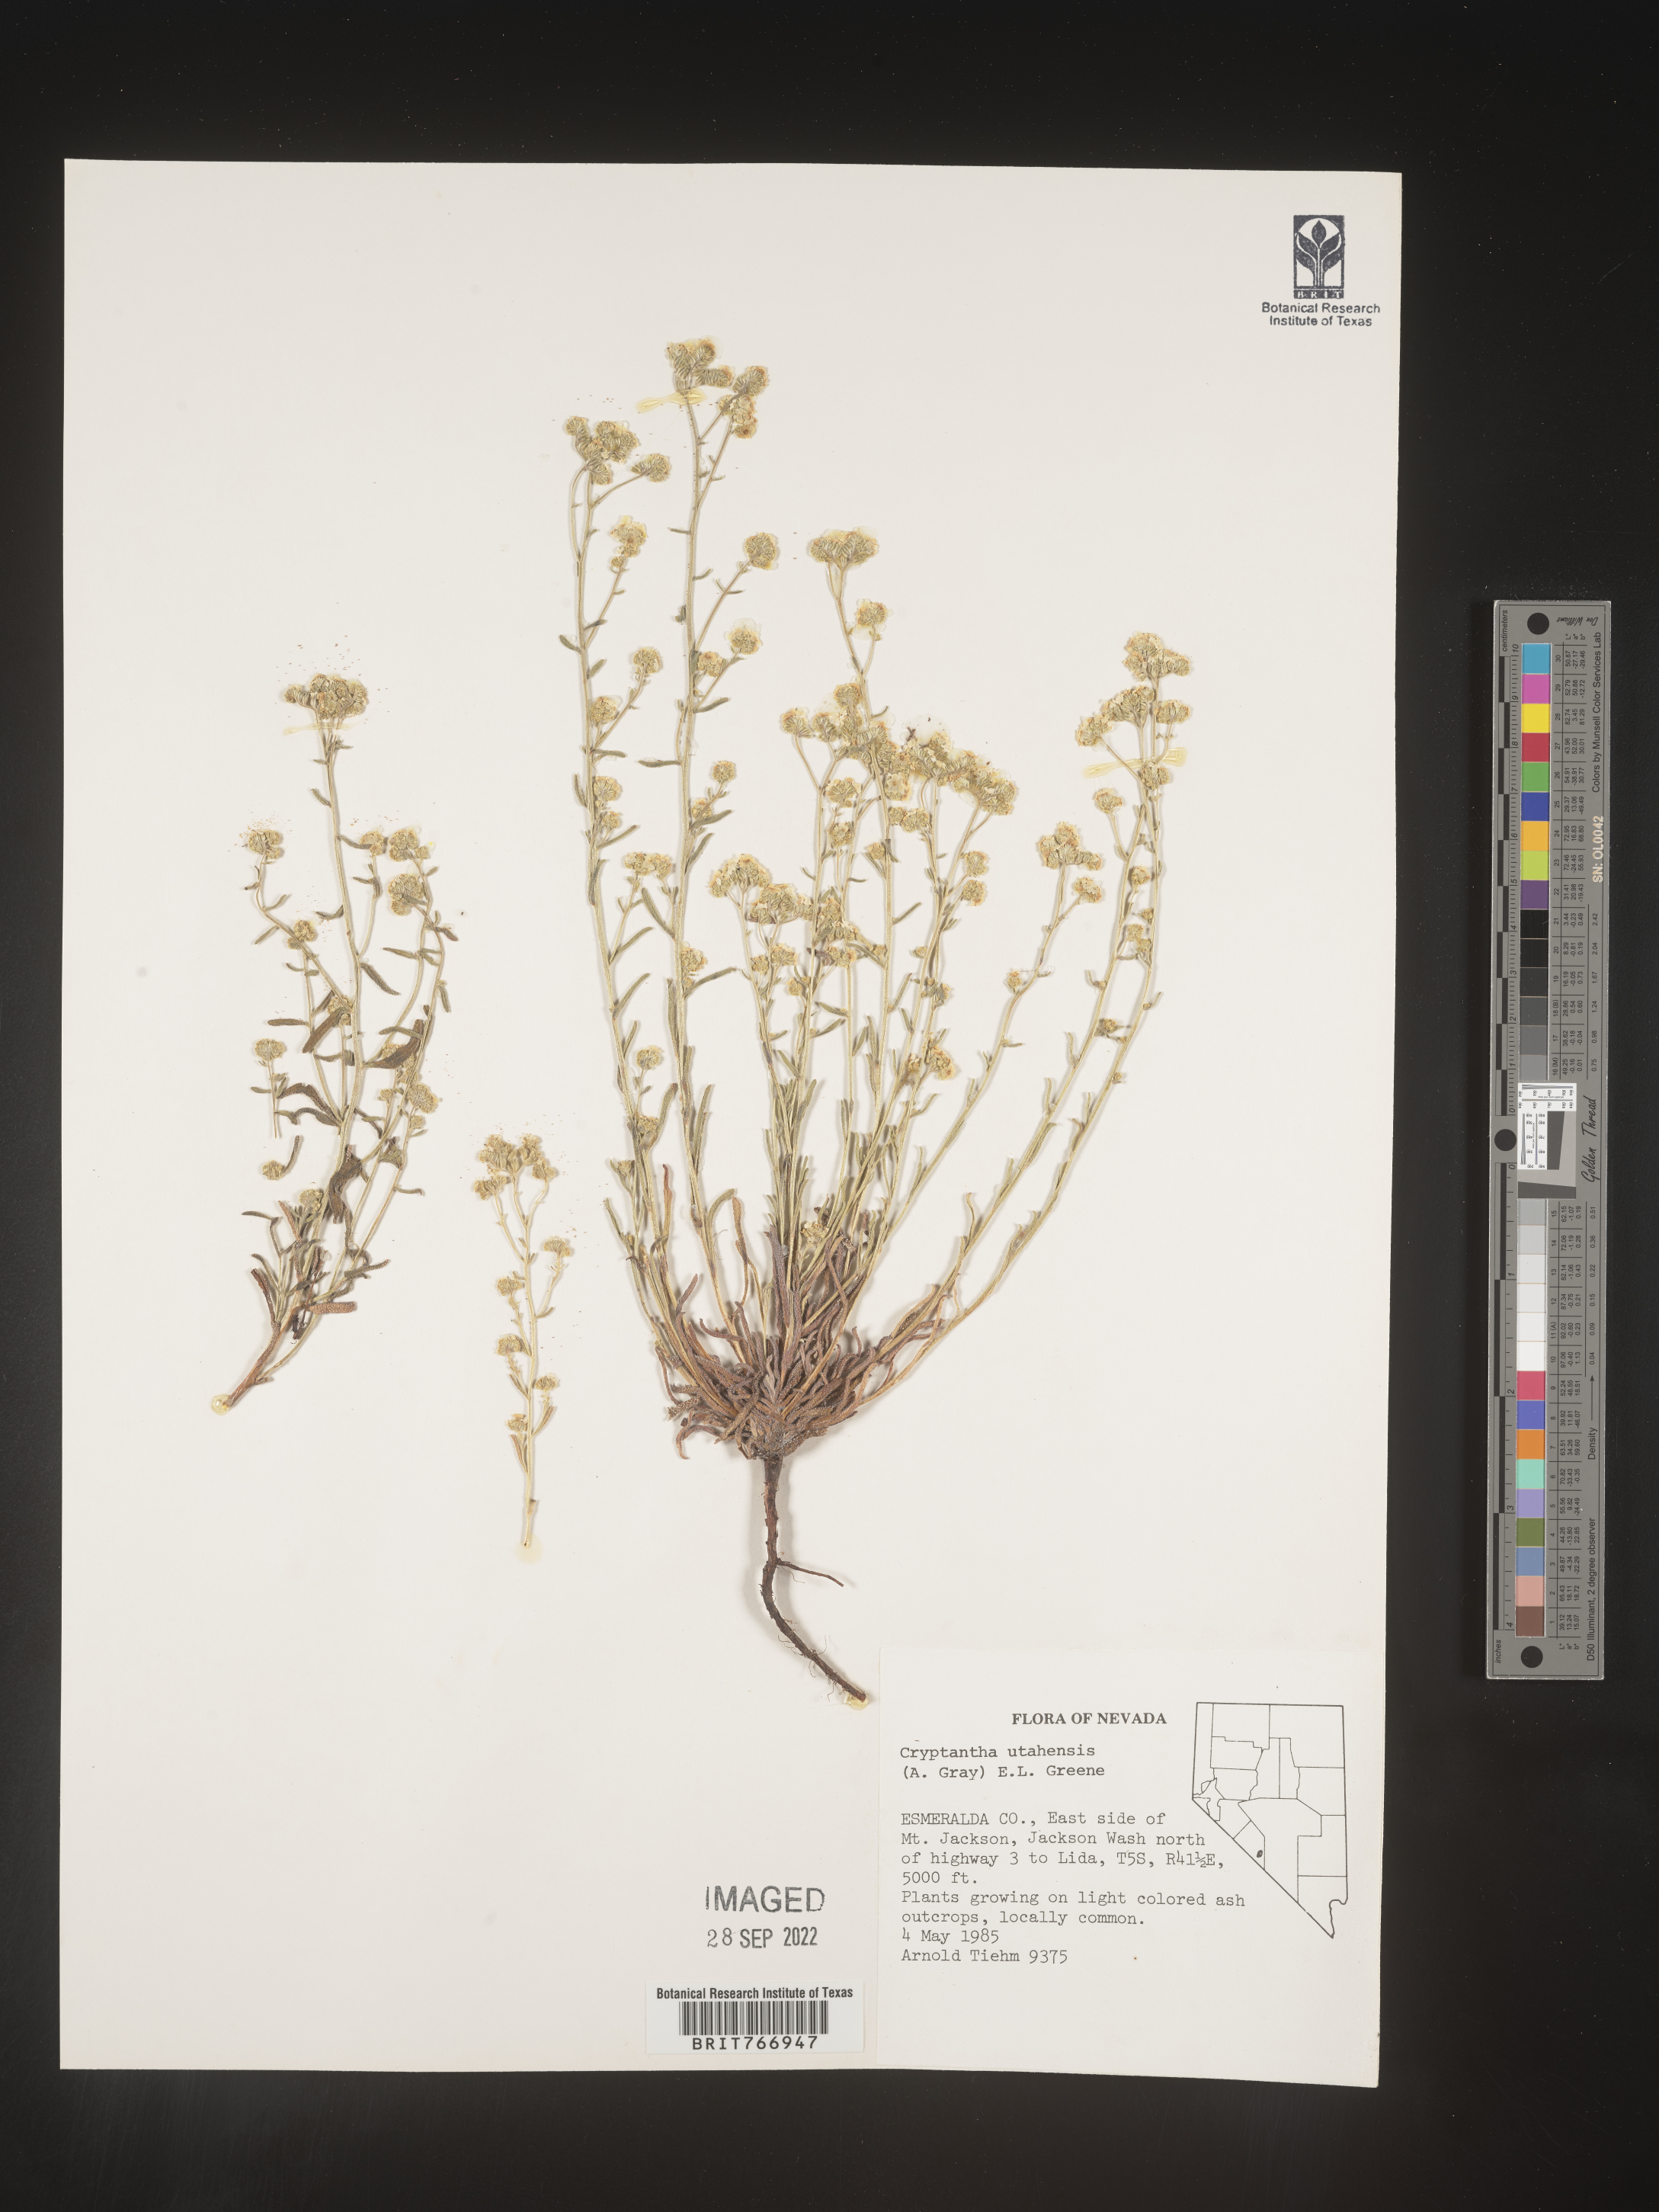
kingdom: Plantae
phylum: Tracheophyta
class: Magnoliopsida
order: Boraginales
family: Boraginaceae
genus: Cryptantha
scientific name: Cryptantha
